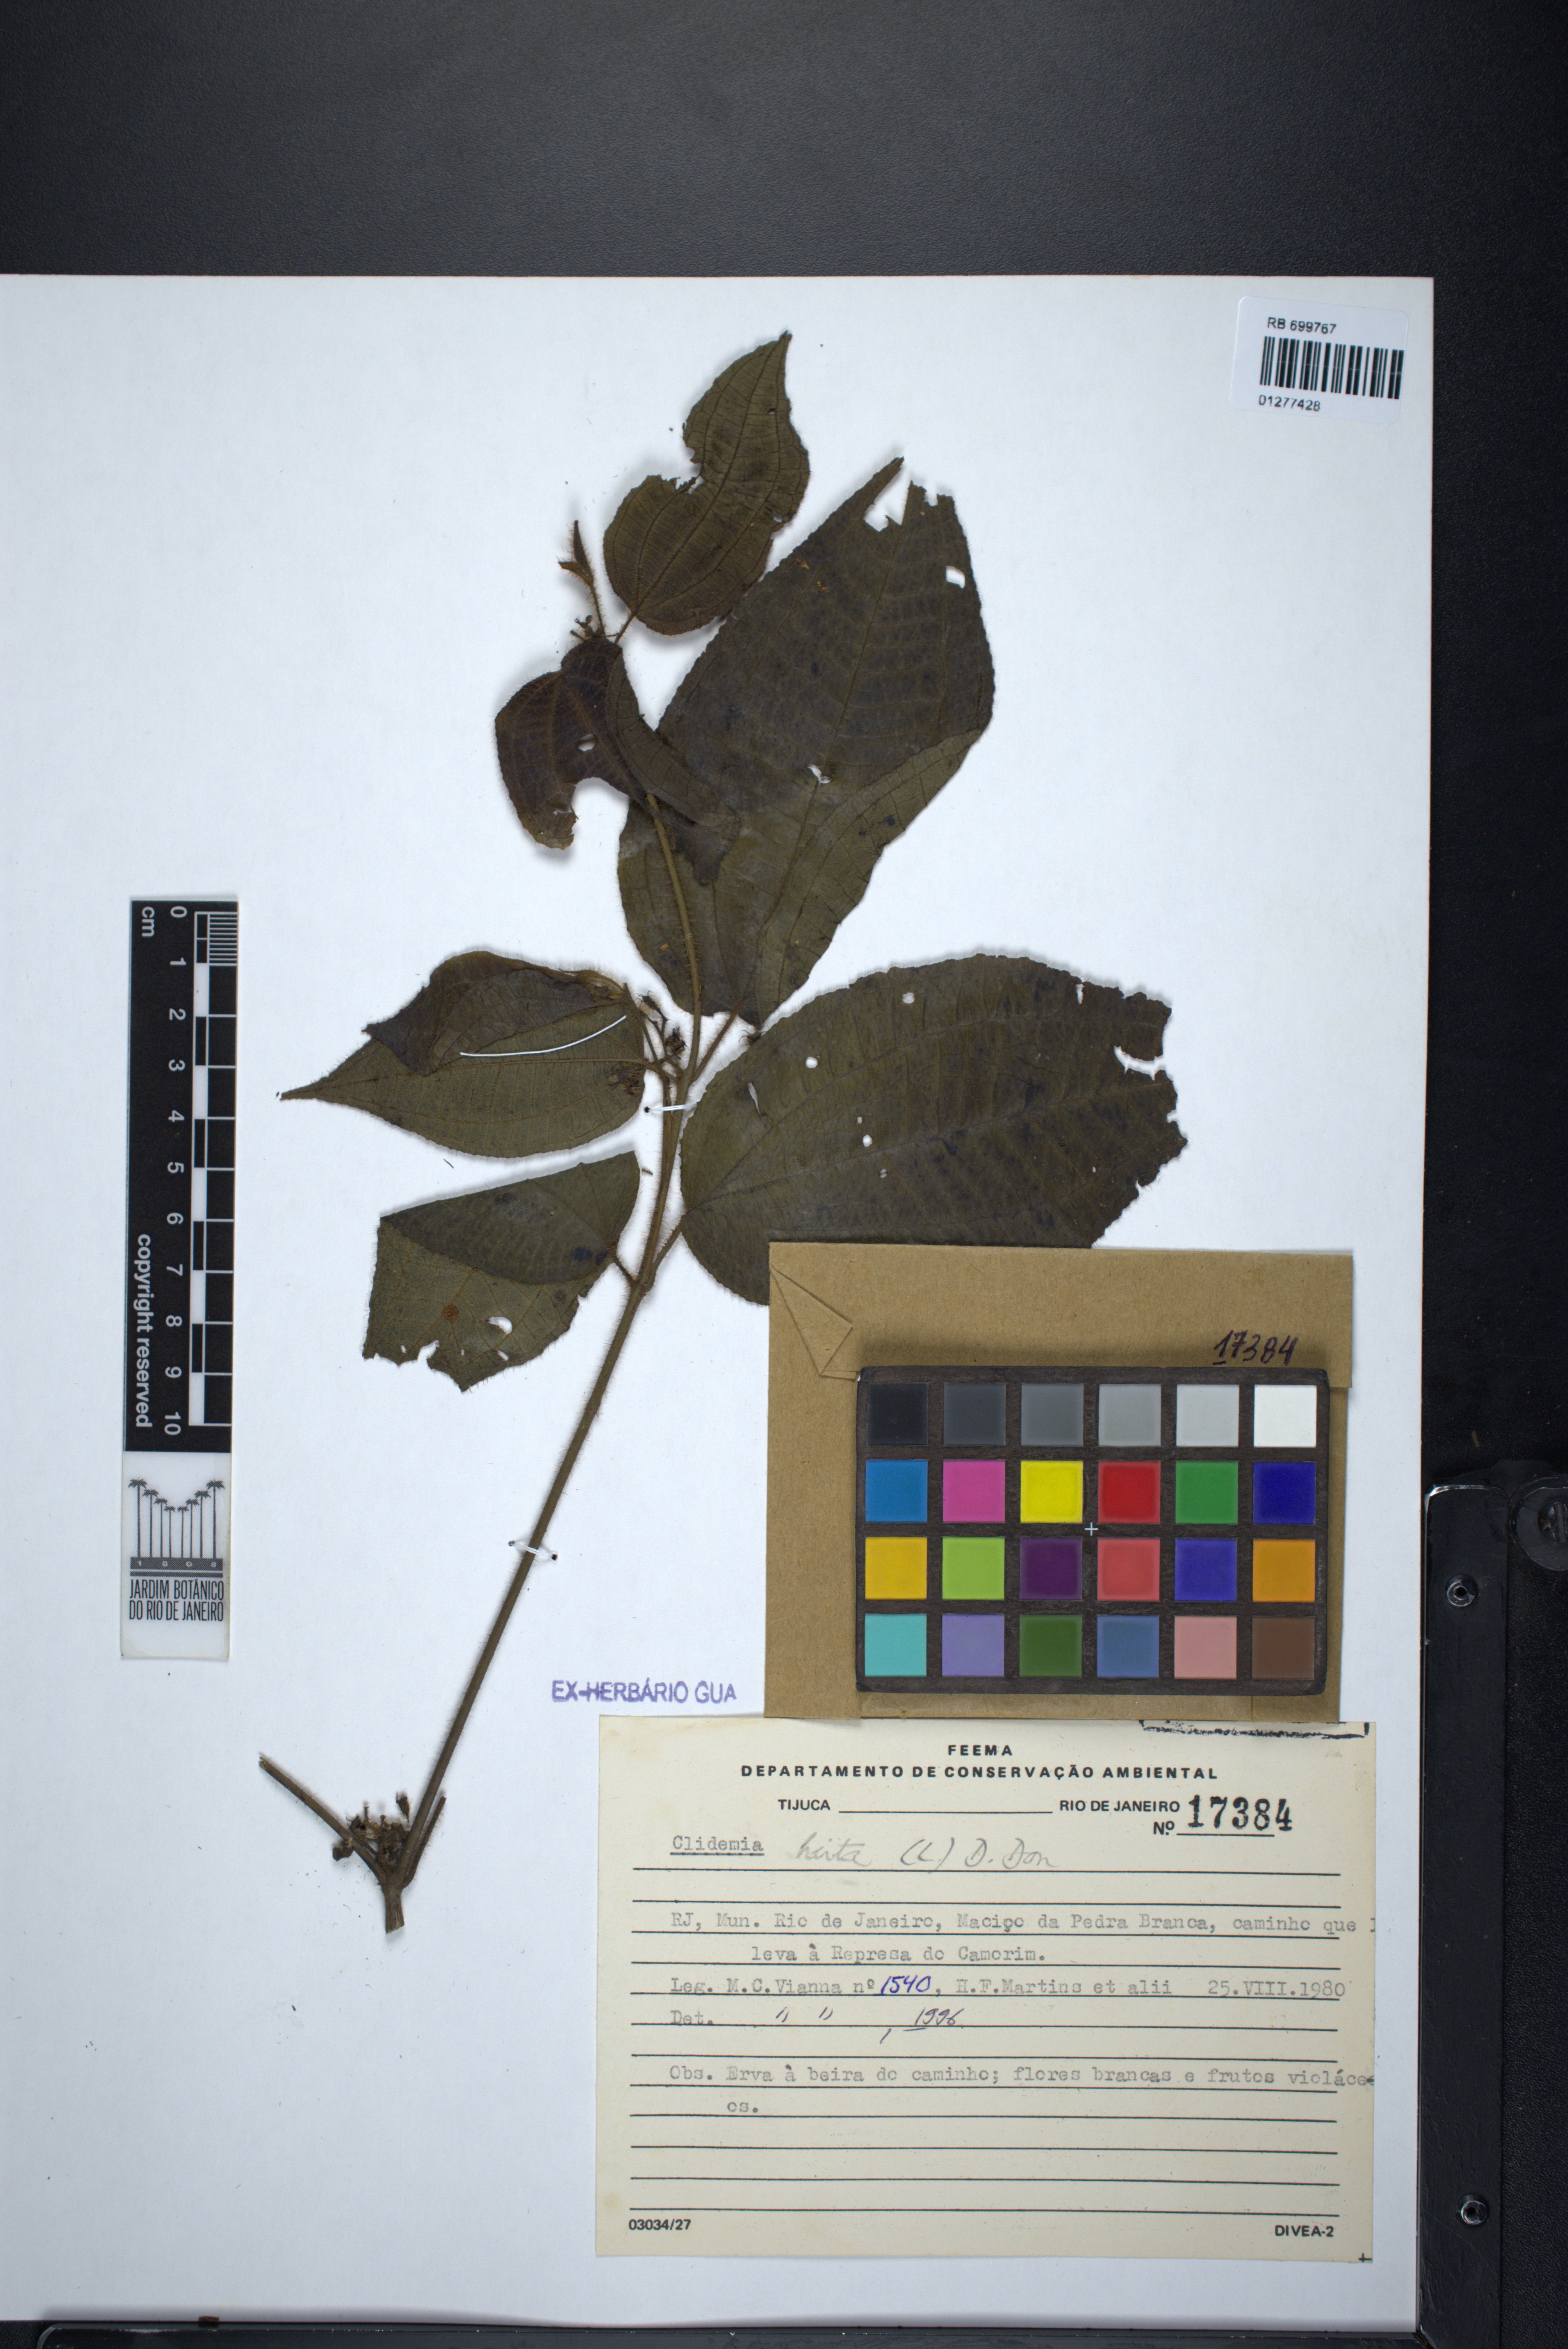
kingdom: Plantae
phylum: Tracheophyta
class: Magnoliopsida
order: Myrtales
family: Melastomataceae
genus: Miconia
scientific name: Miconia crenata
